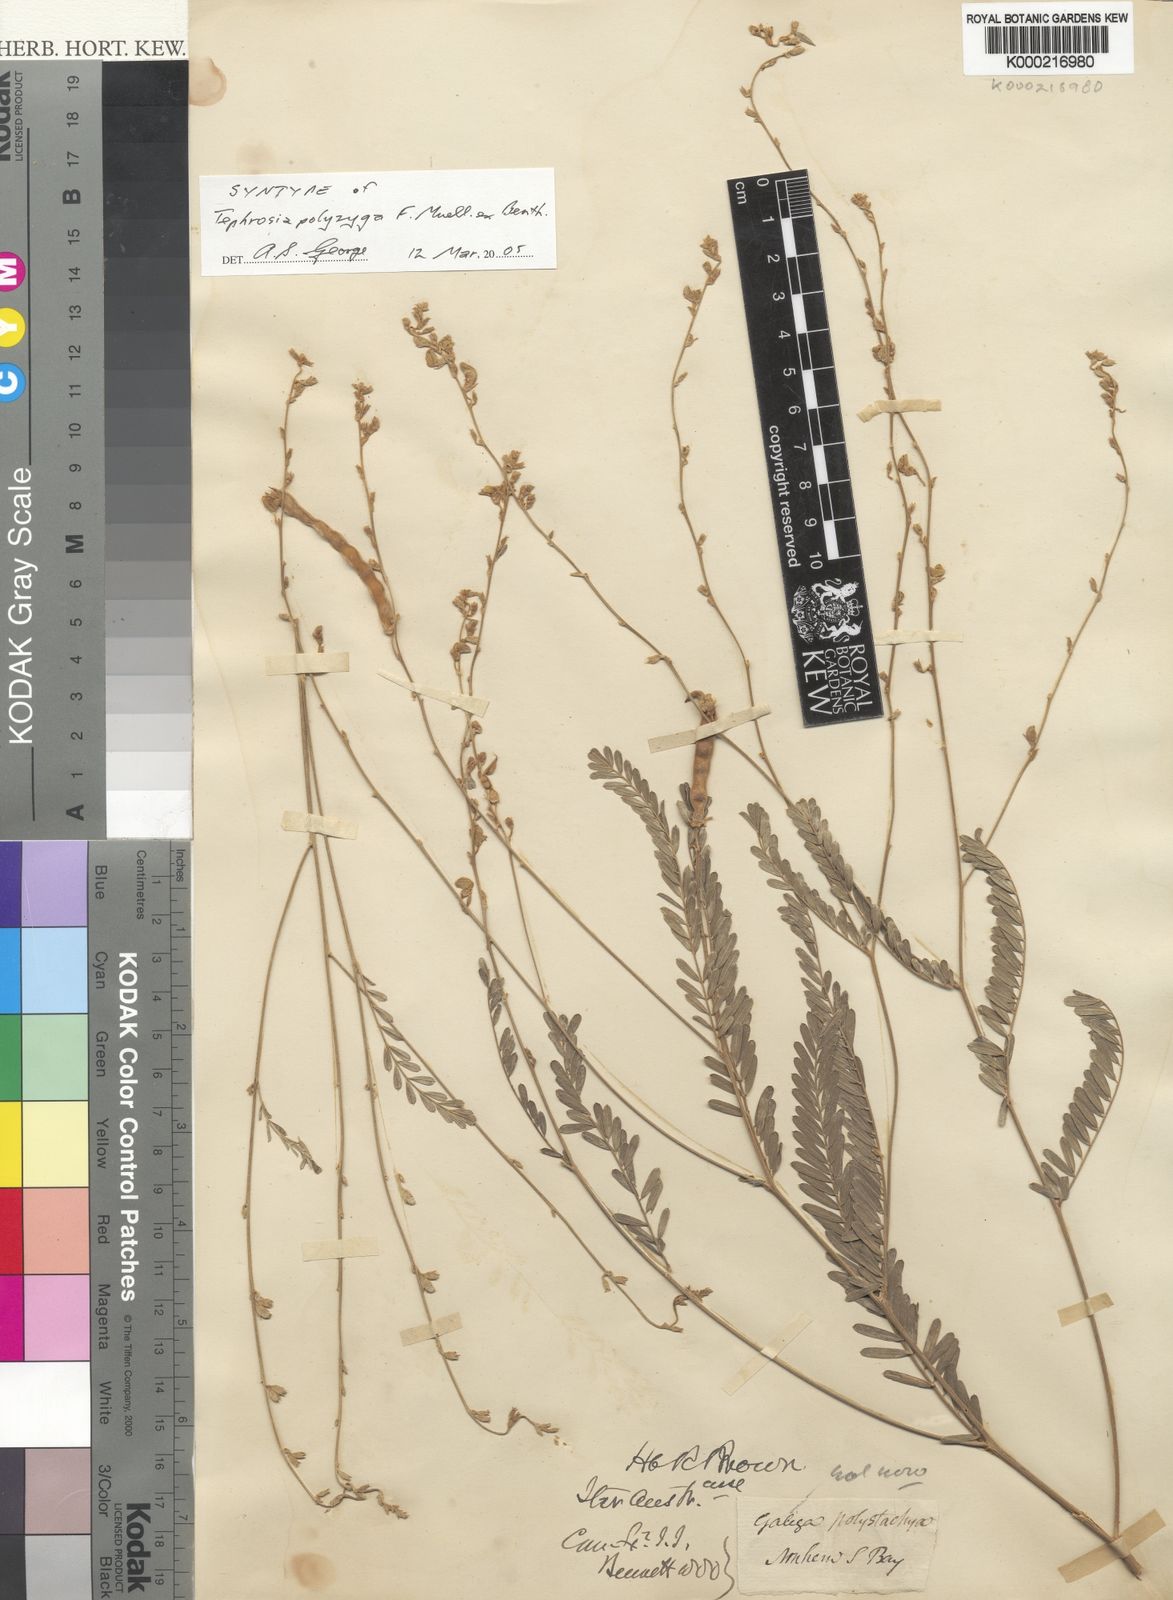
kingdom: Plantae
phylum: Tracheophyta
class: Magnoliopsida
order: Fabales
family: Fabaceae
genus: Tephrosia
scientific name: Tephrosia polyzyga
